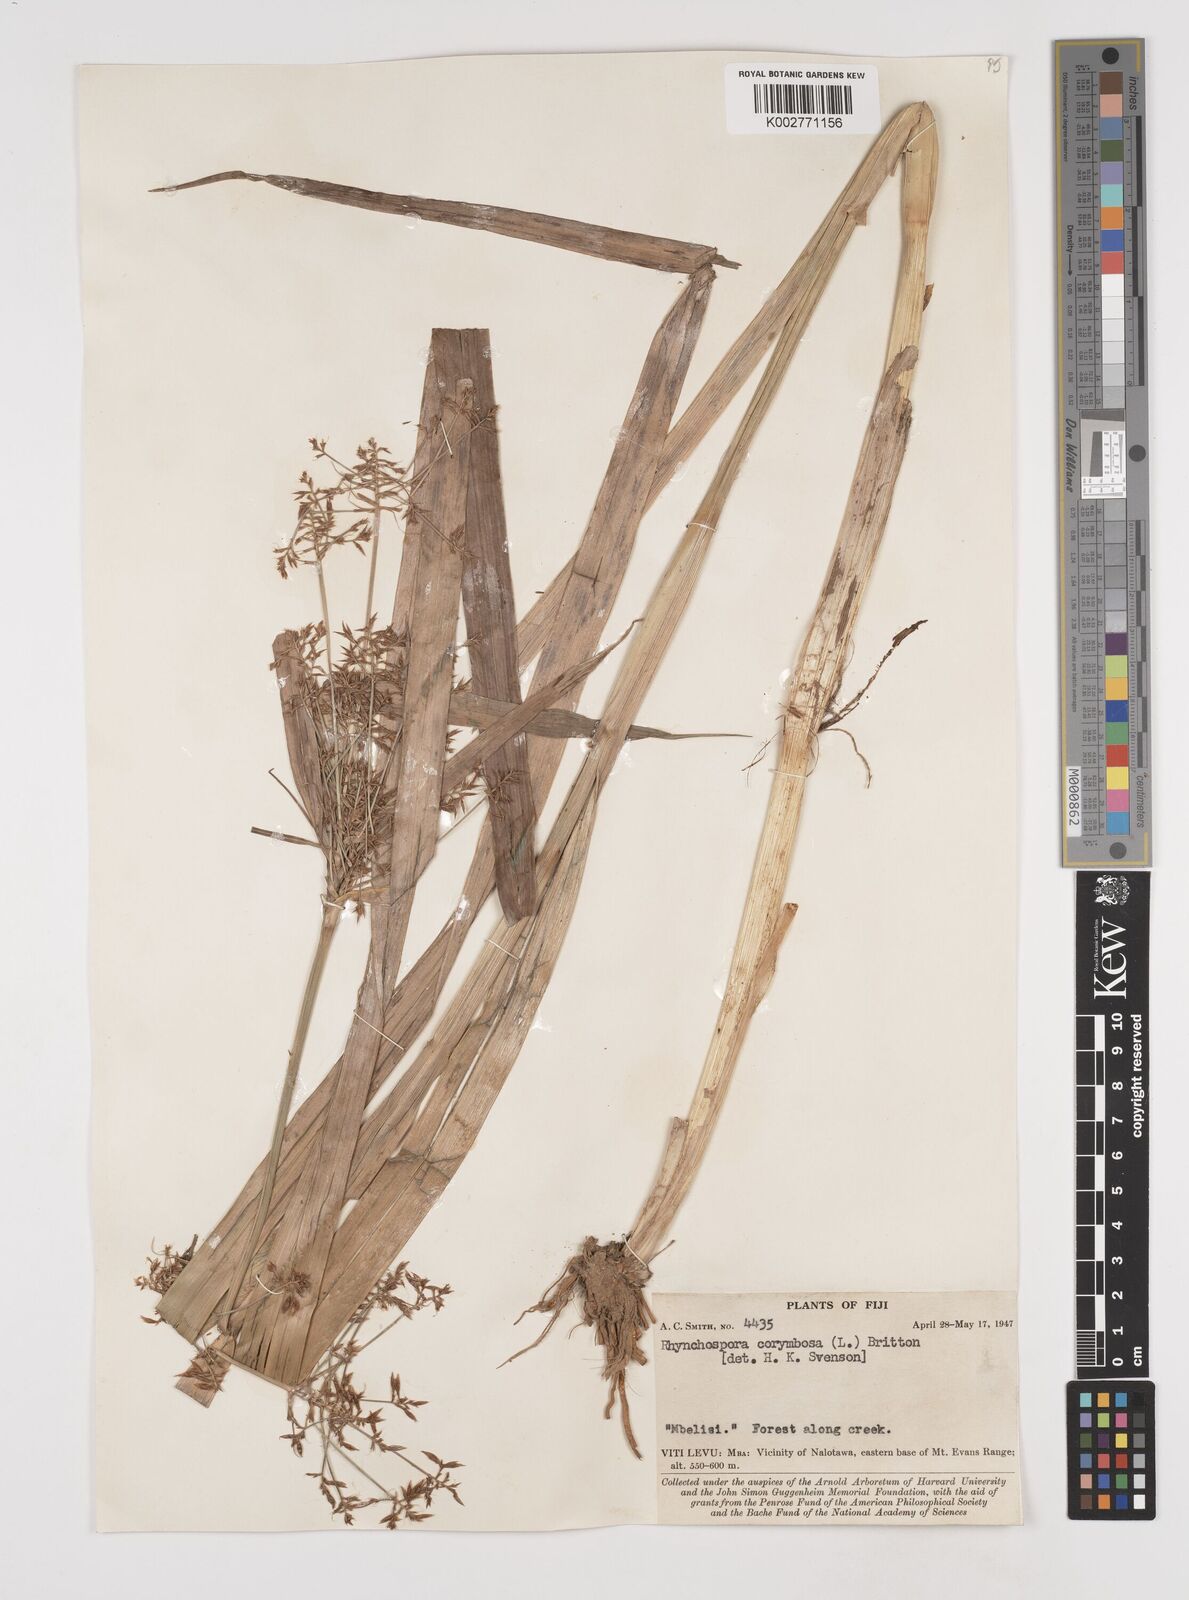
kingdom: Plantae
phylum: Tracheophyta
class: Liliopsida
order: Poales
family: Cyperaceae
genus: Rhynchospora
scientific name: Rhynchospora corymbosa
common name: Golden beak sedge
